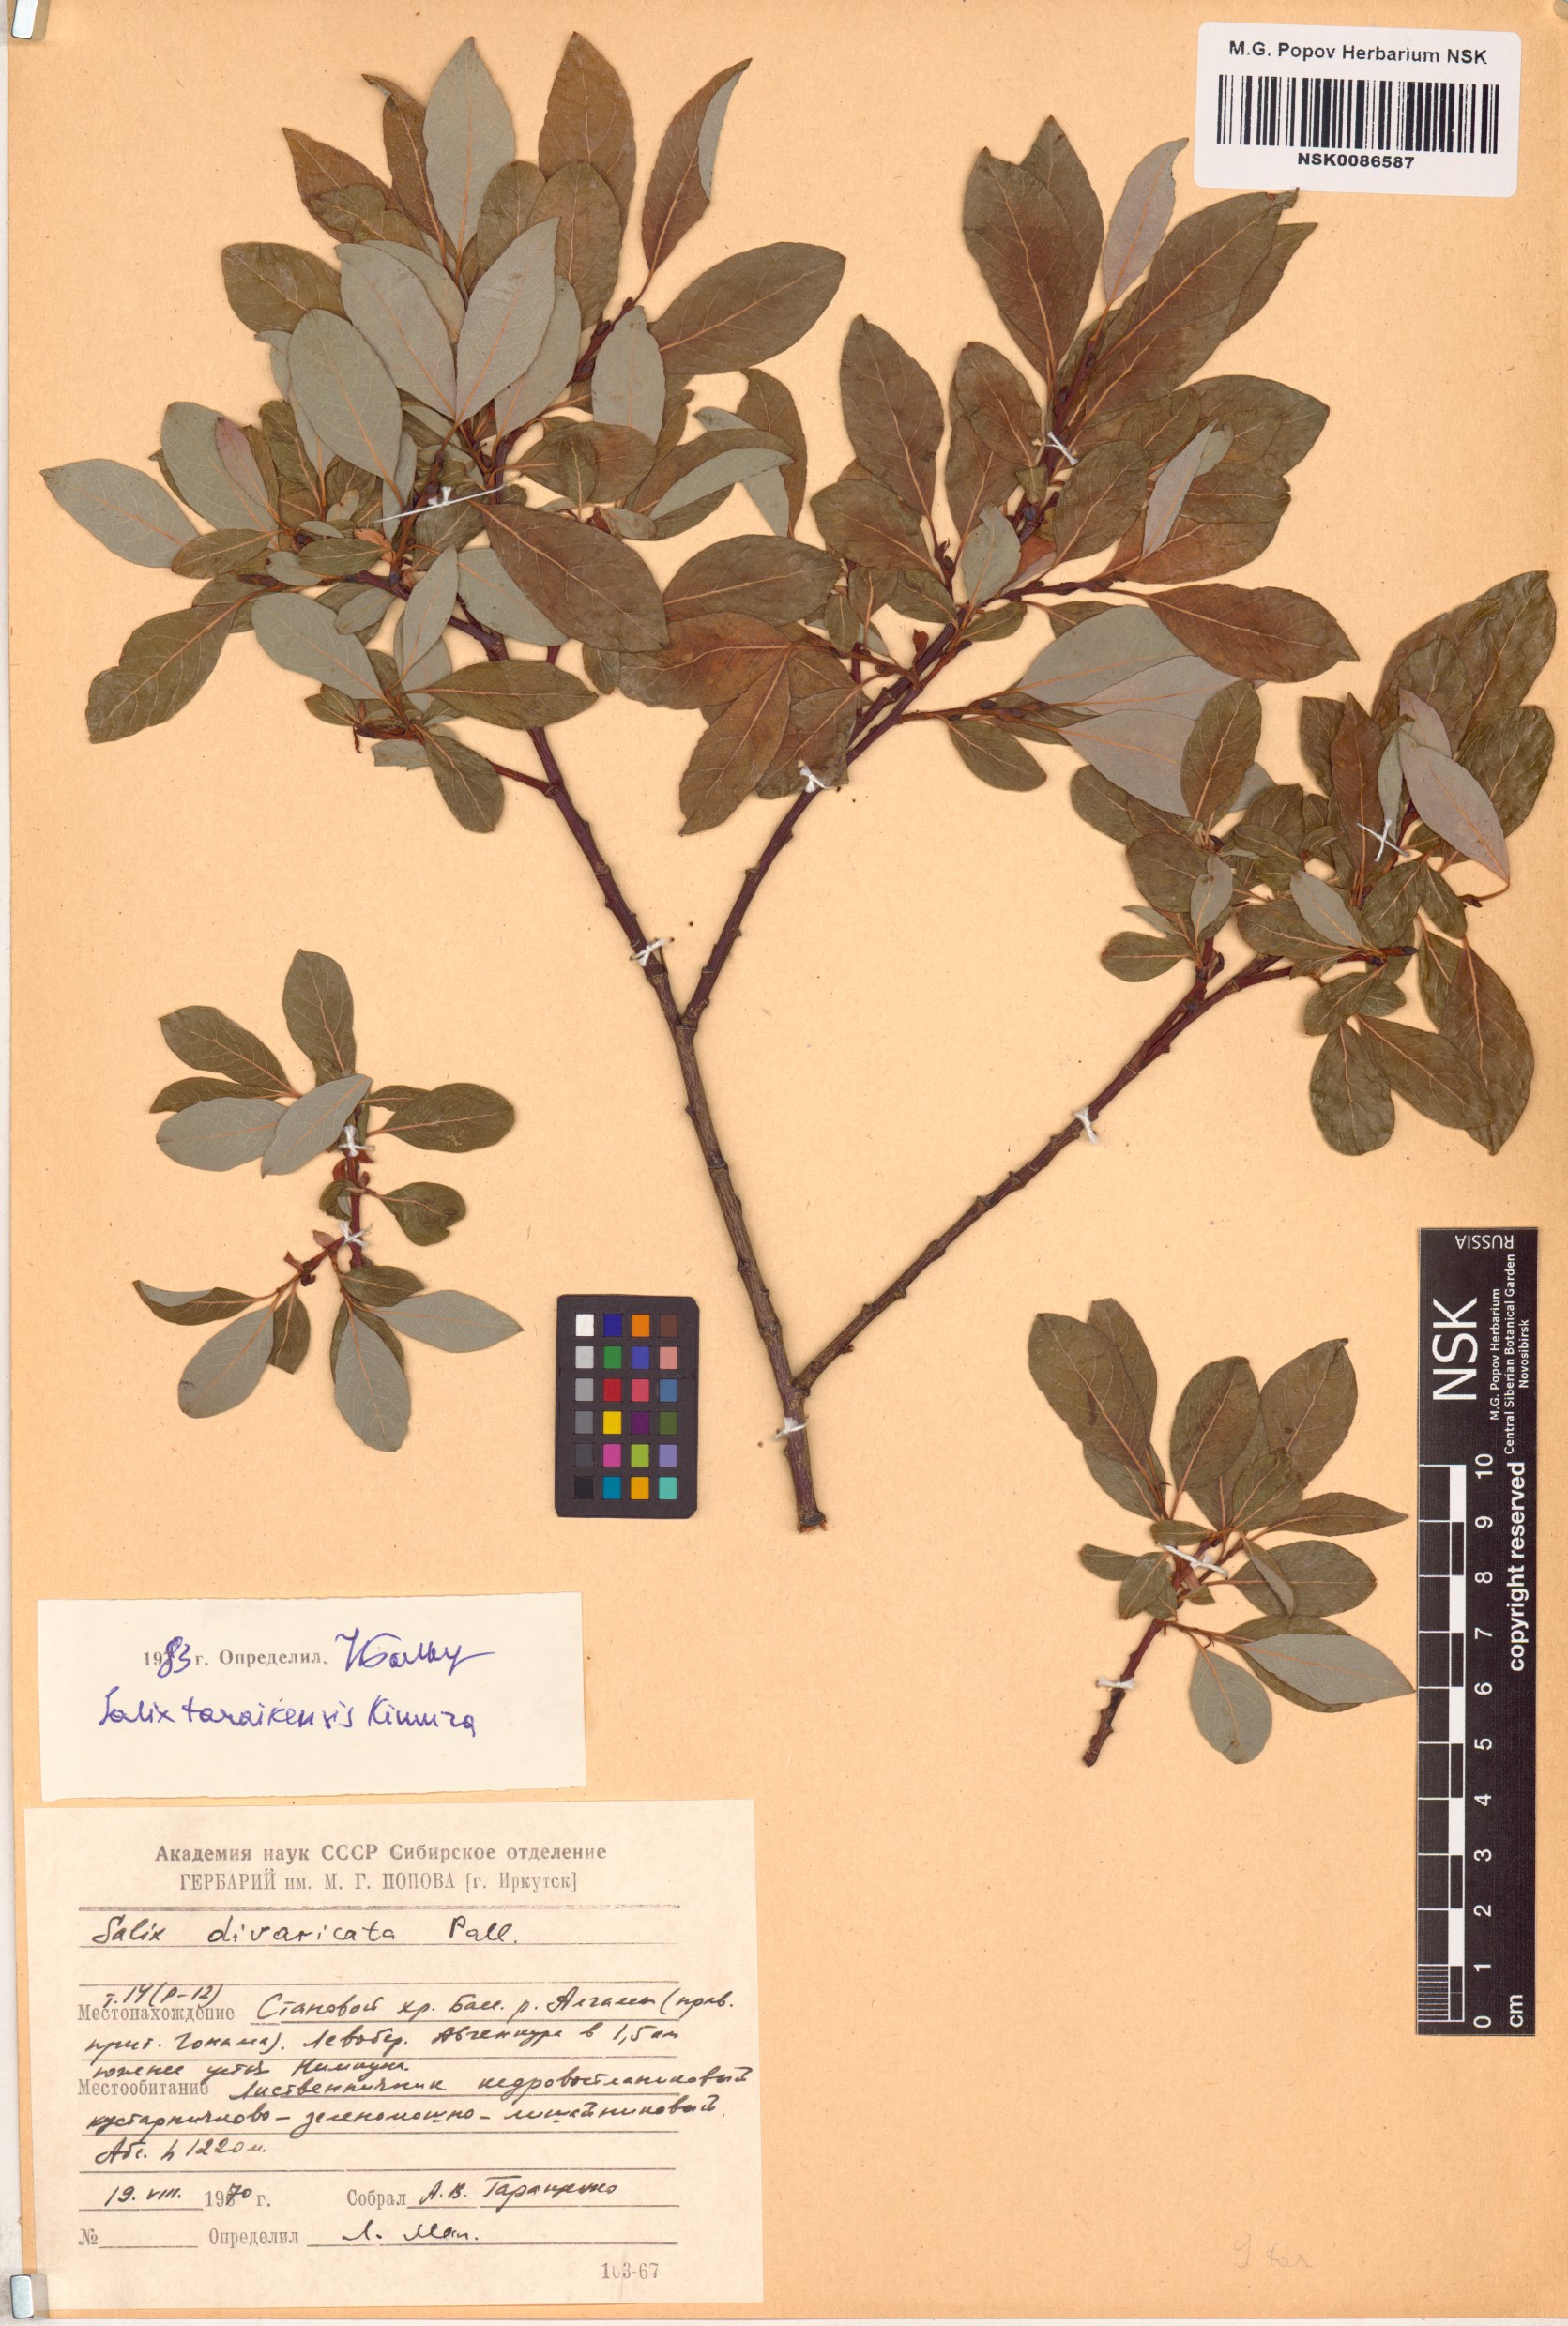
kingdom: Plantae
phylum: Tracheophyta
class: Magnoliopsida
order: Malpighiales
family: Salicaceae
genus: Salix
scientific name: Salix taraikensis
